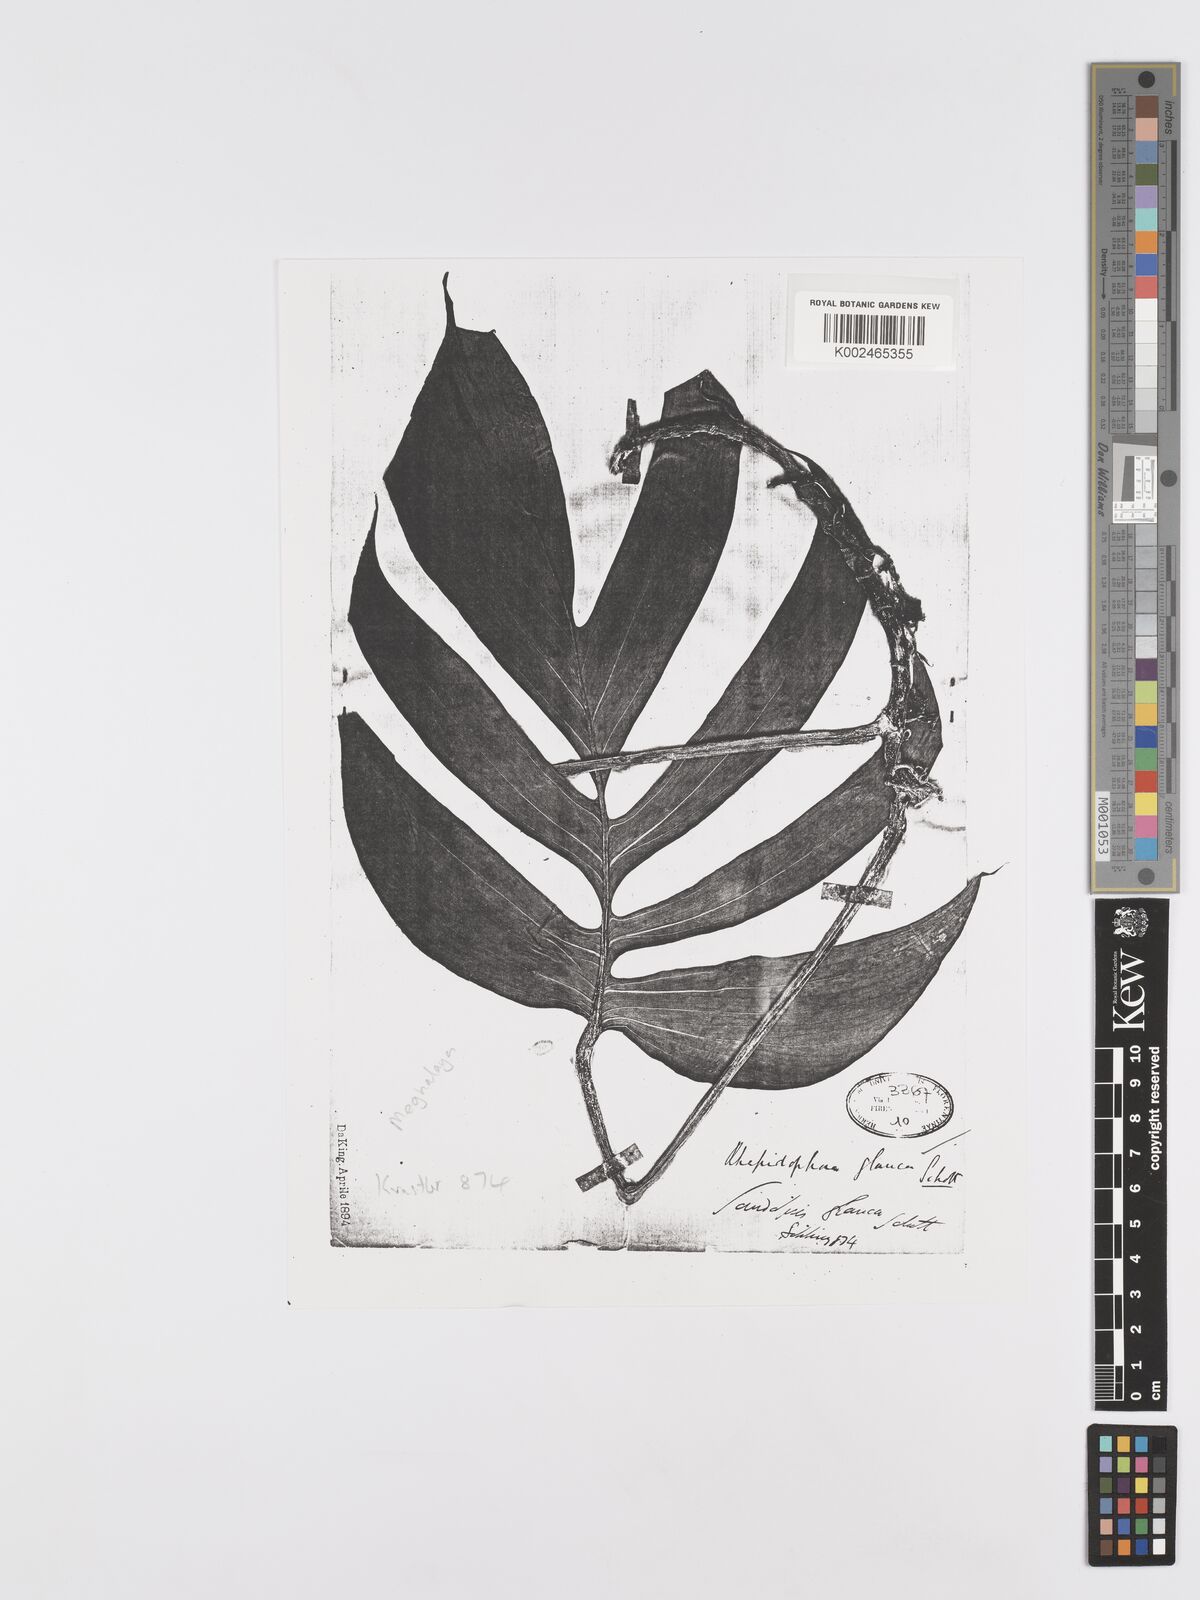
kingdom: Plantae
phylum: Tracheophyta
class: Liliopsida
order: Alismatales
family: Araceae
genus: Rhaphidophora
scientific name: Rhaphidophora glauca
